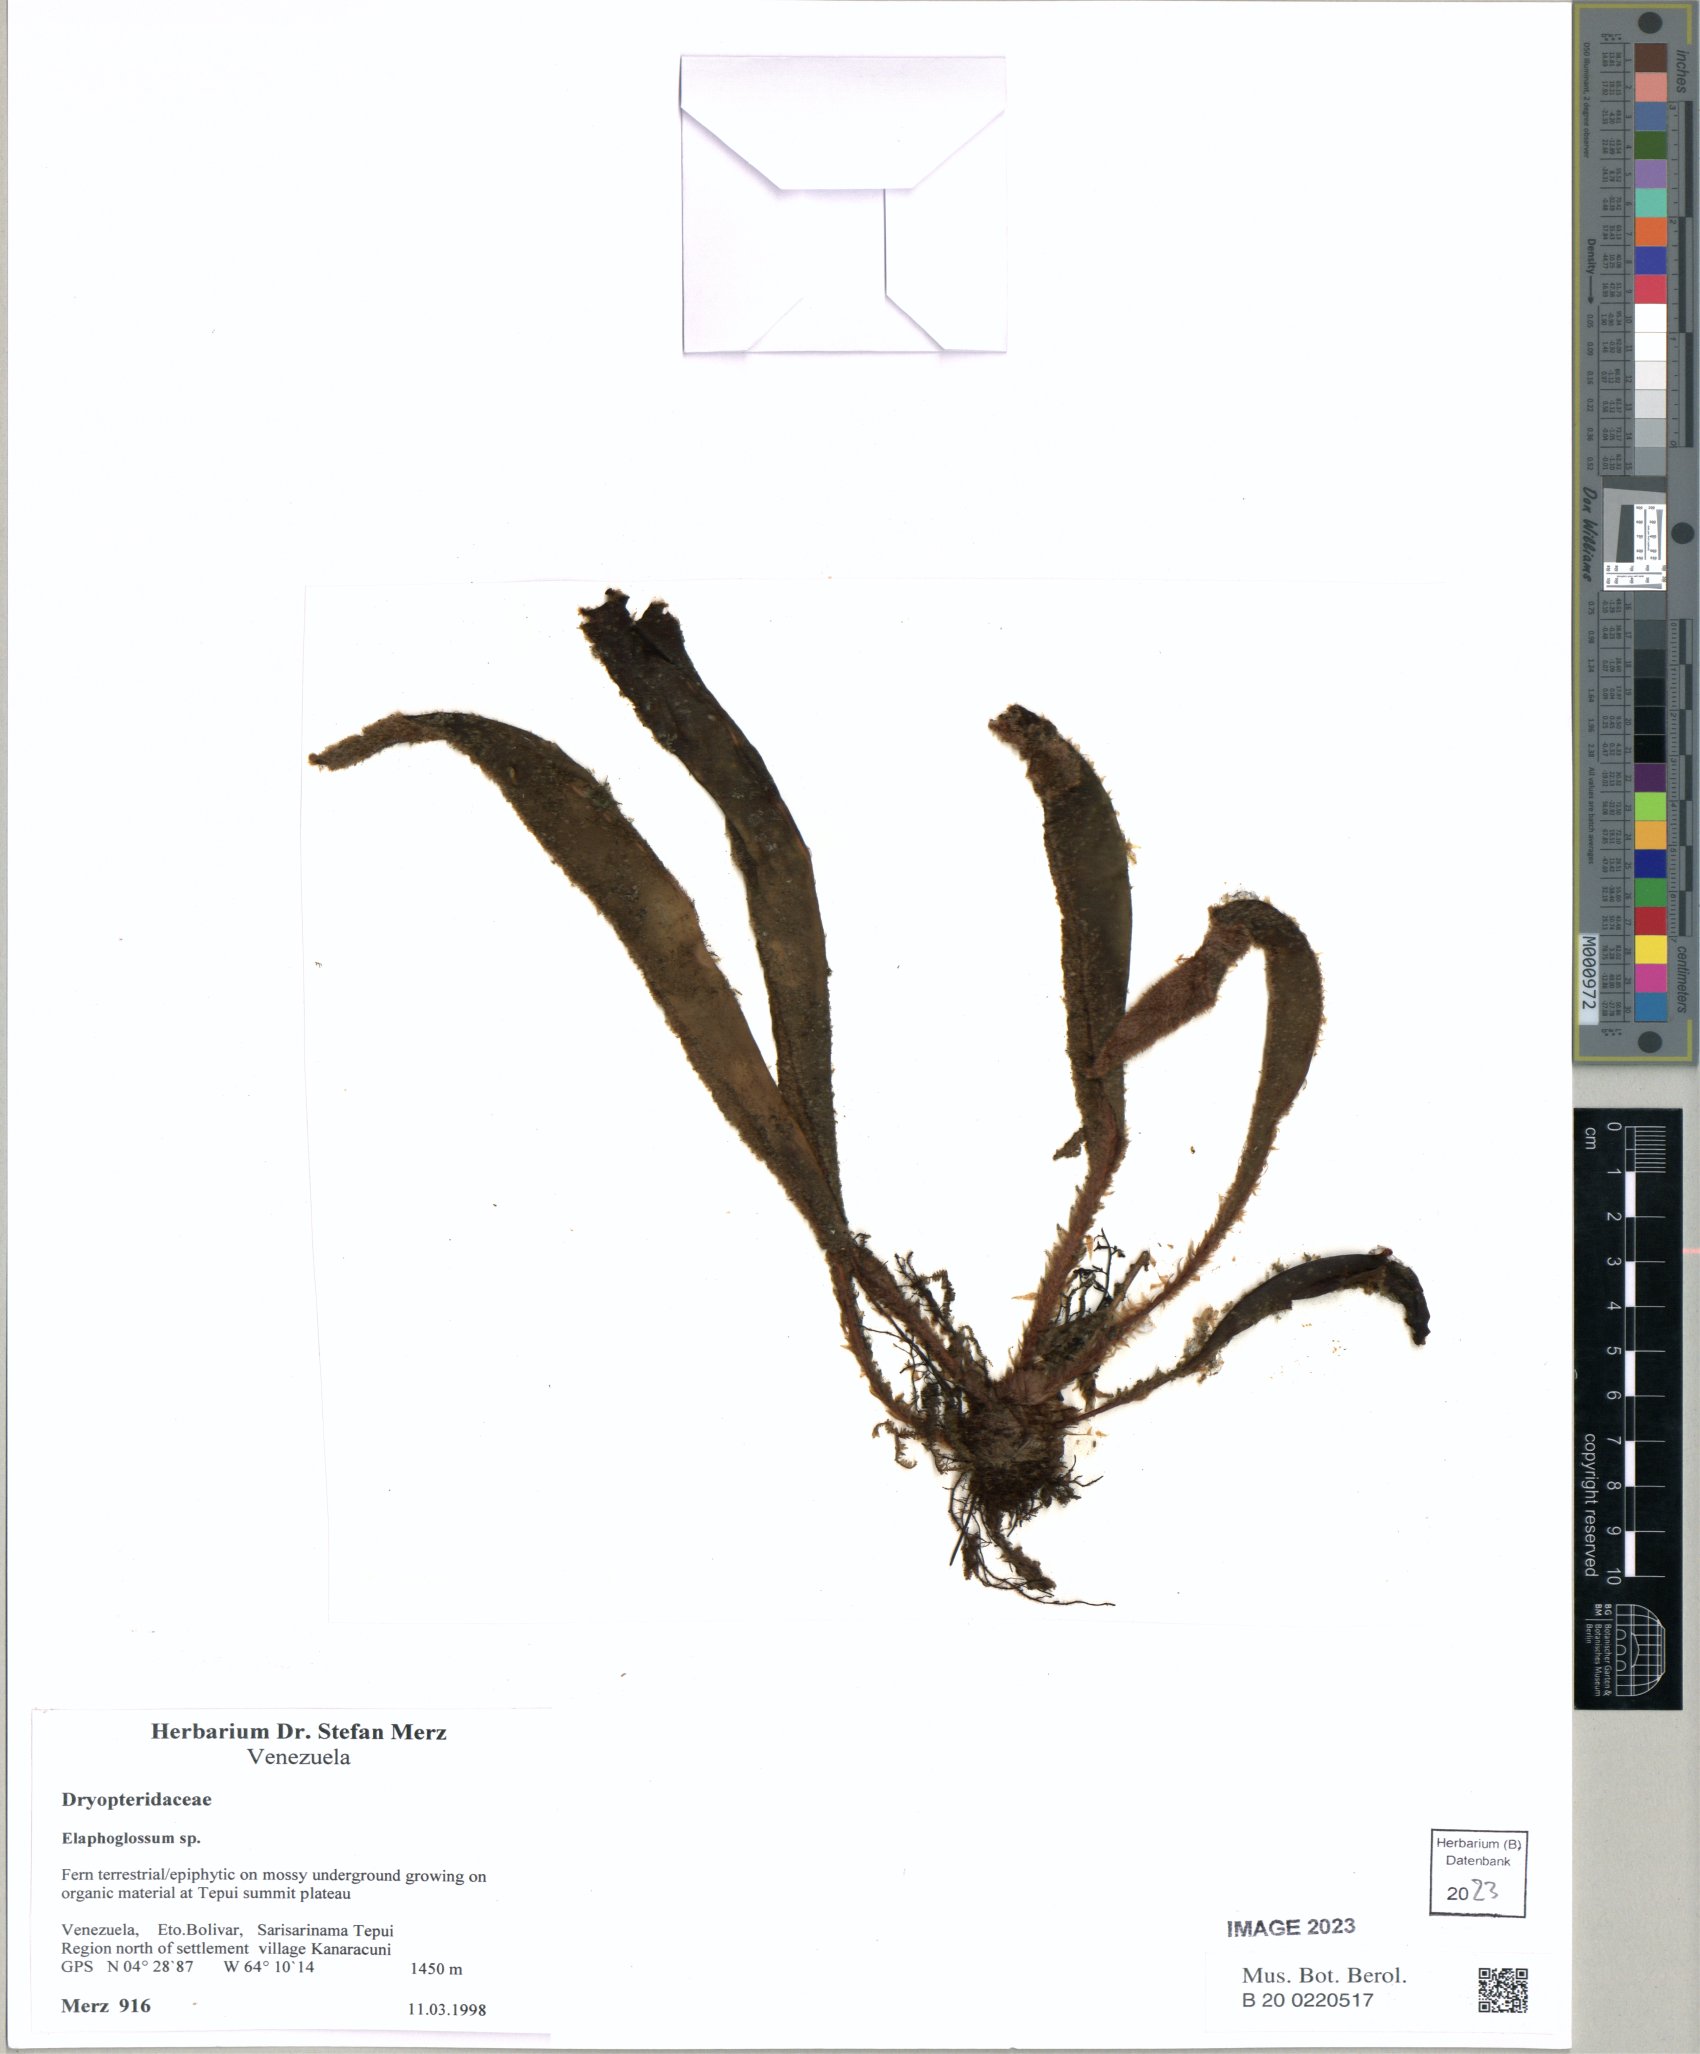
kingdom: Plantae
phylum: Tracheophyta
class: Polypodiopsida
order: Polypodiales
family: Dryopteridaceae
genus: Elaphoglossum
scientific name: Elaphoglossum
